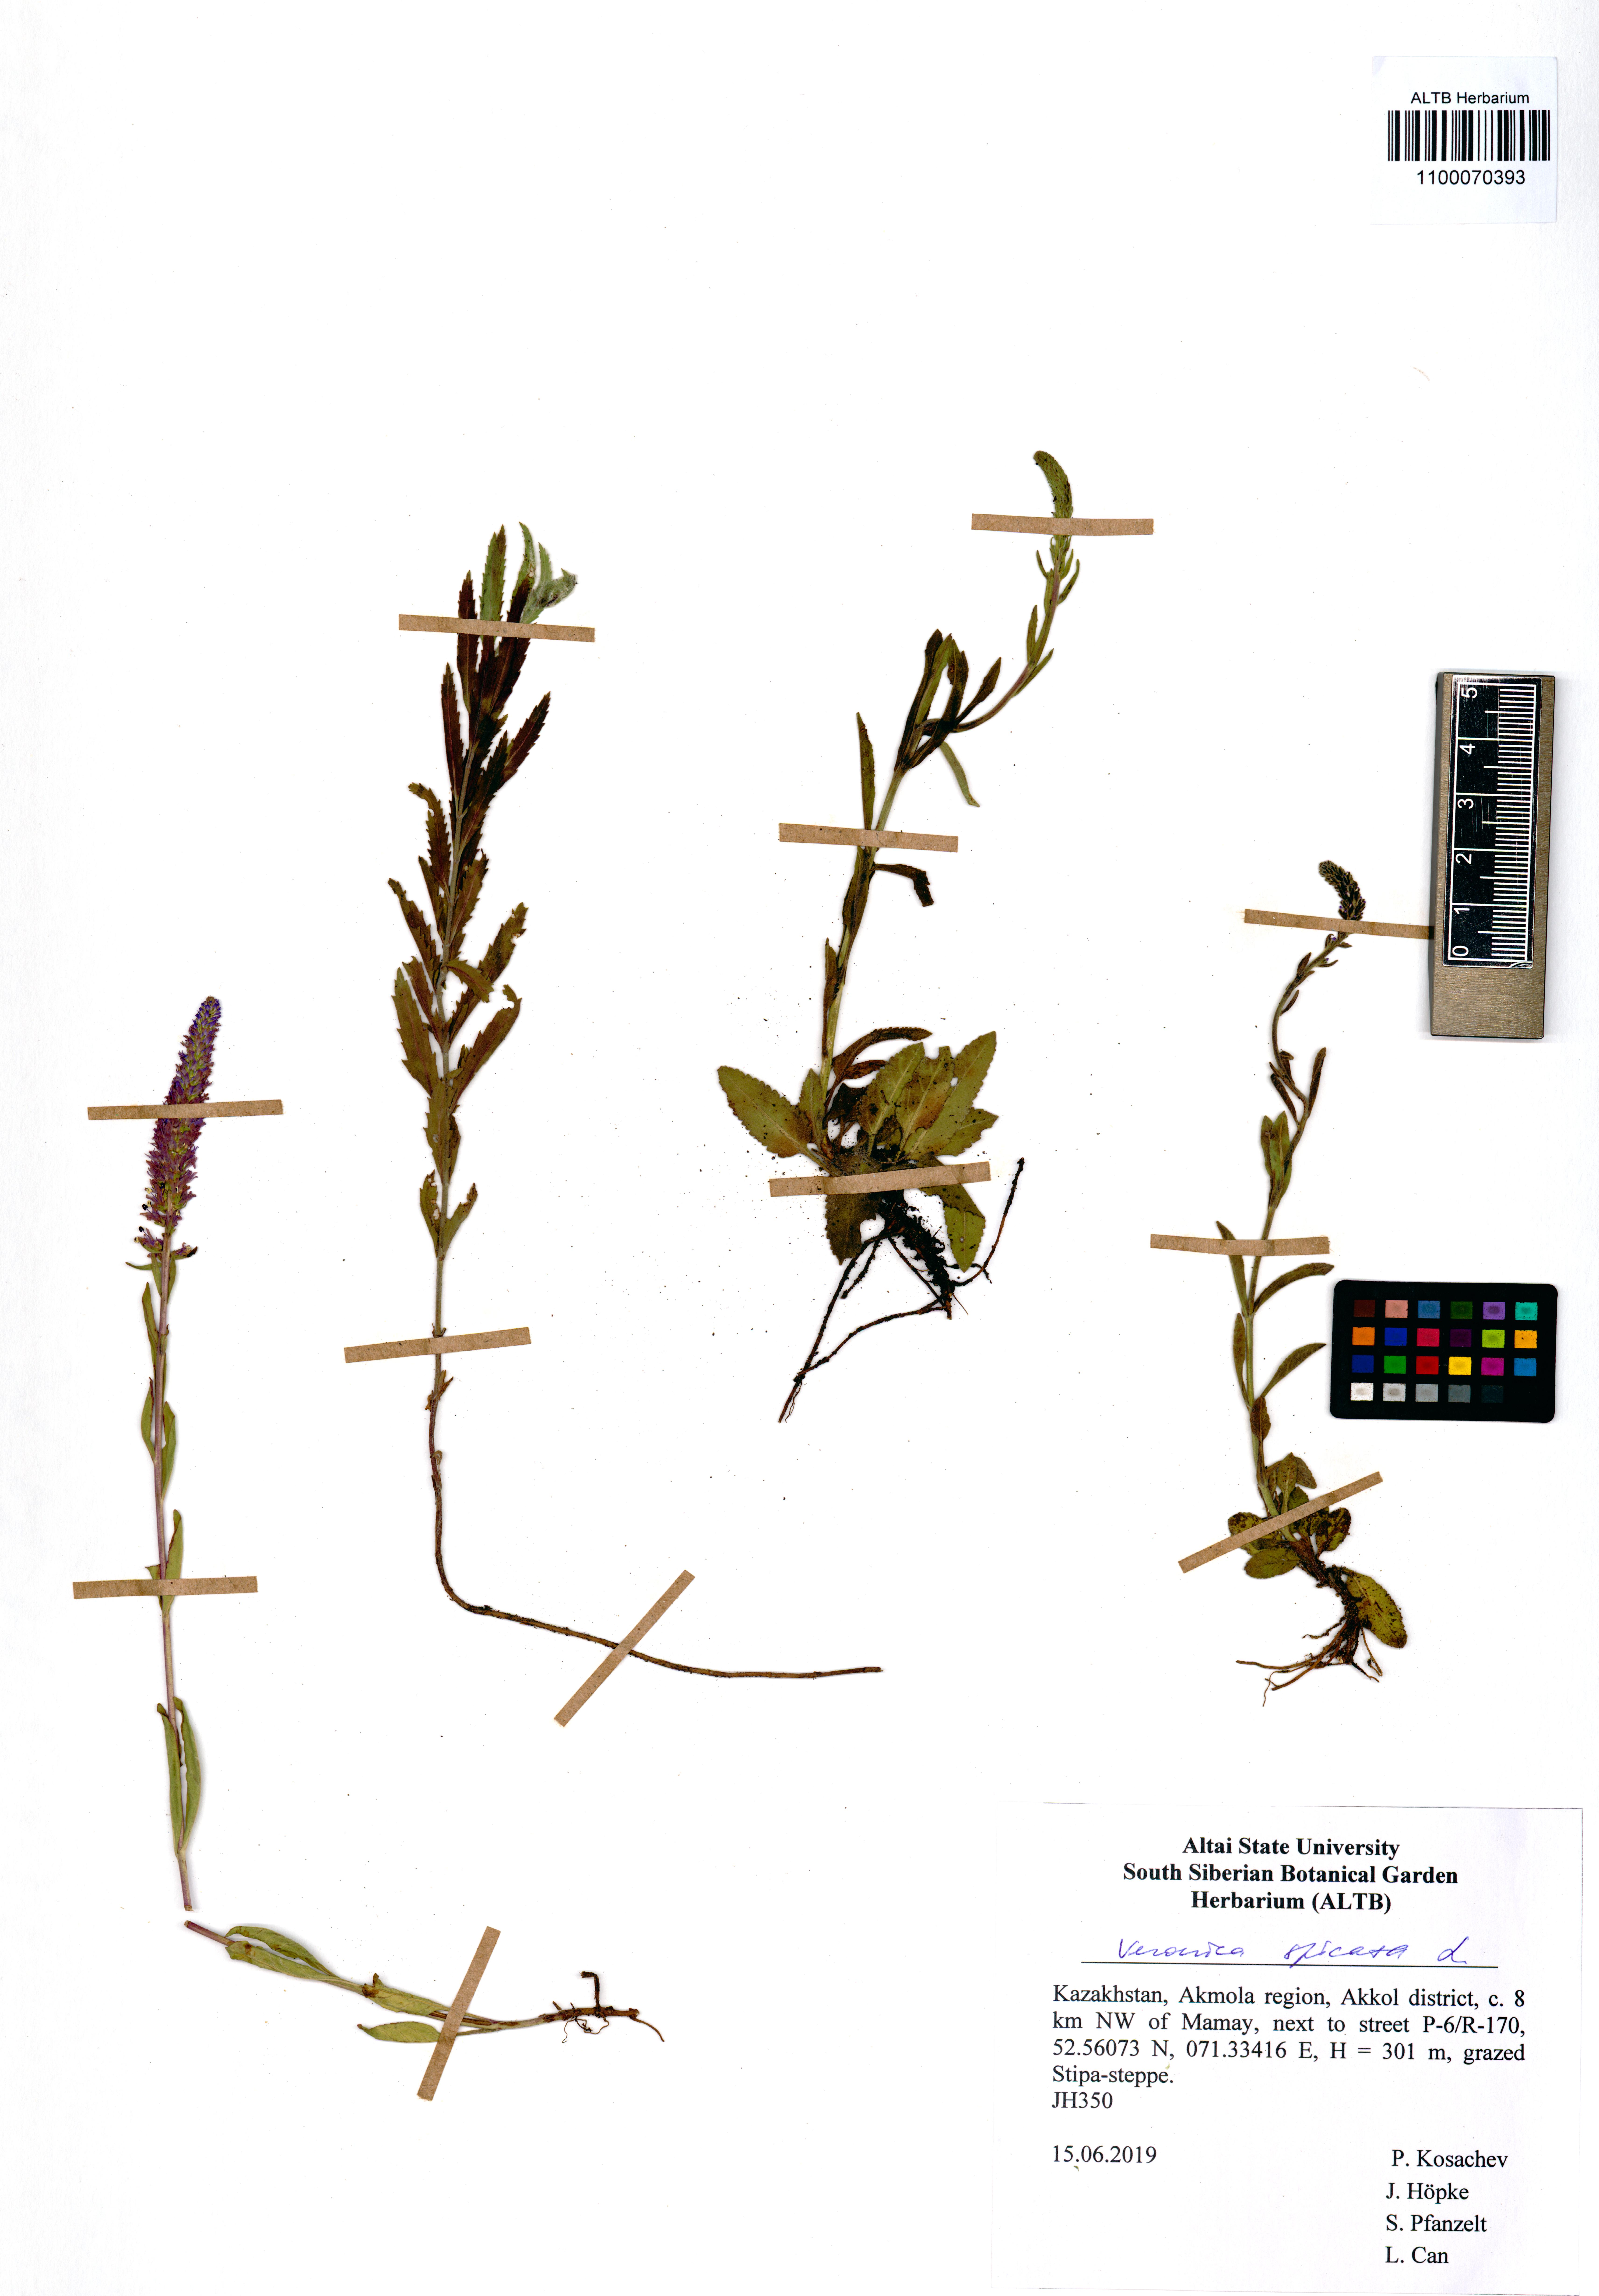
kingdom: Plantae
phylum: Tracheophyta
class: Magnoliopsida
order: Lamiales
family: Plantaginaceae
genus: Veronica
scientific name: Veronica spicata
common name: Spiked speedwell
